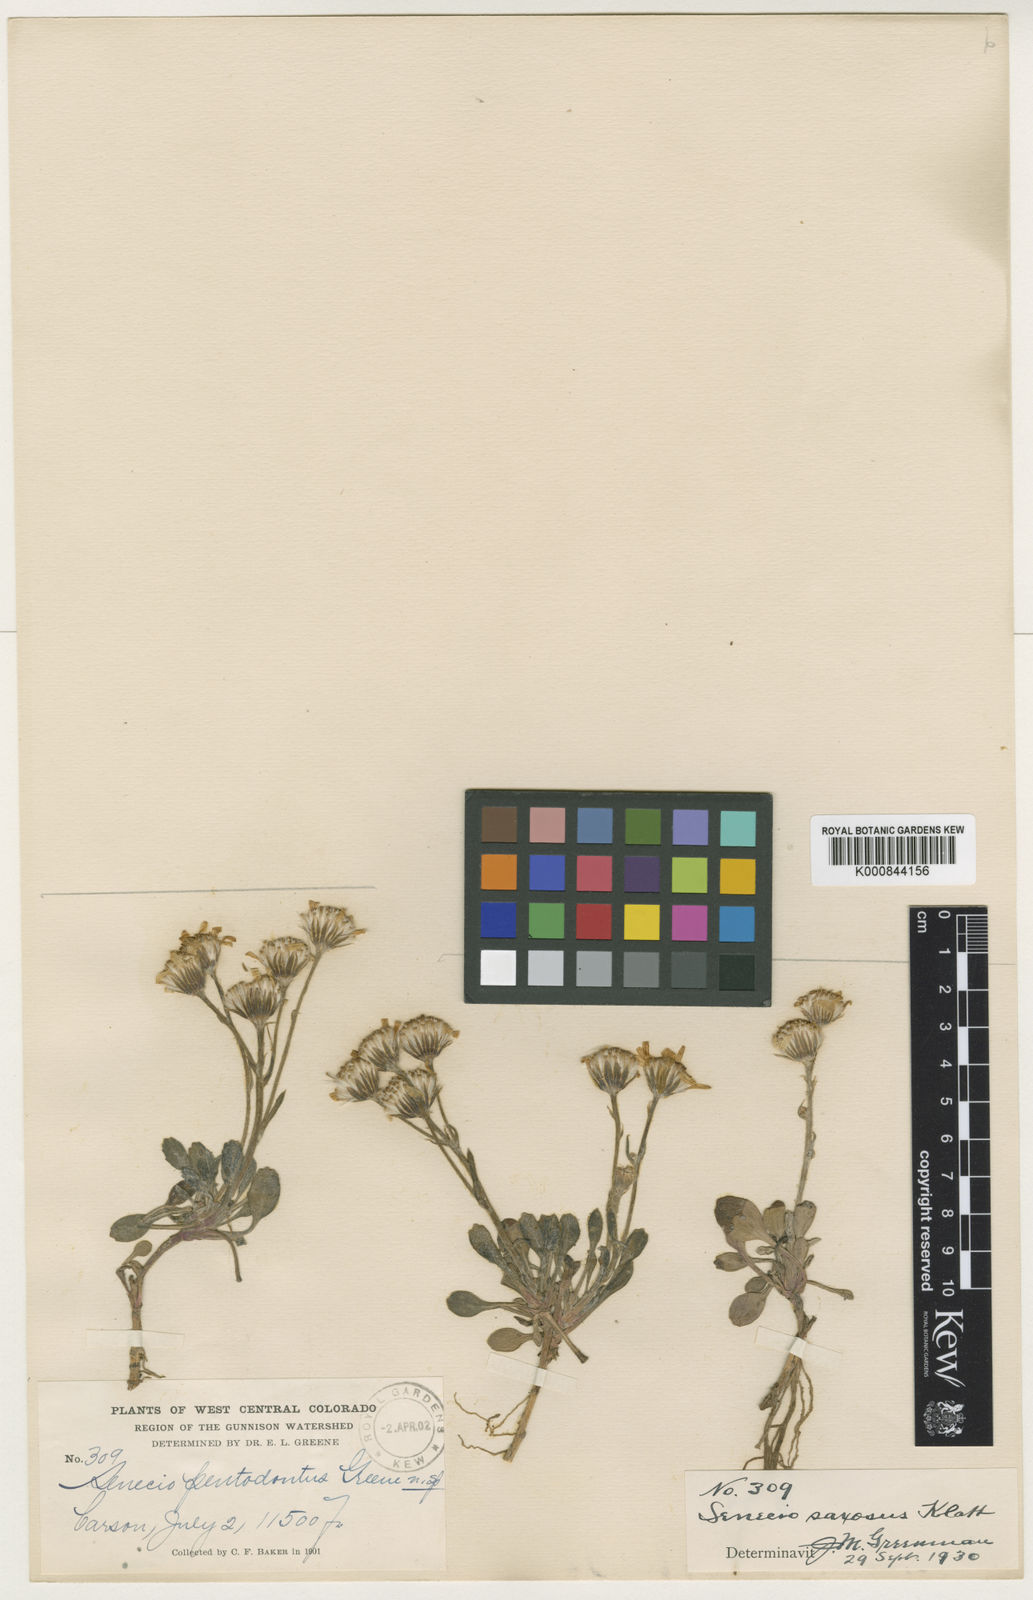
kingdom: Plantae
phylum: Tracheophyta
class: Magnoliopsida
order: Asterales
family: Asteraceae
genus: Packera
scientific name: Packera
